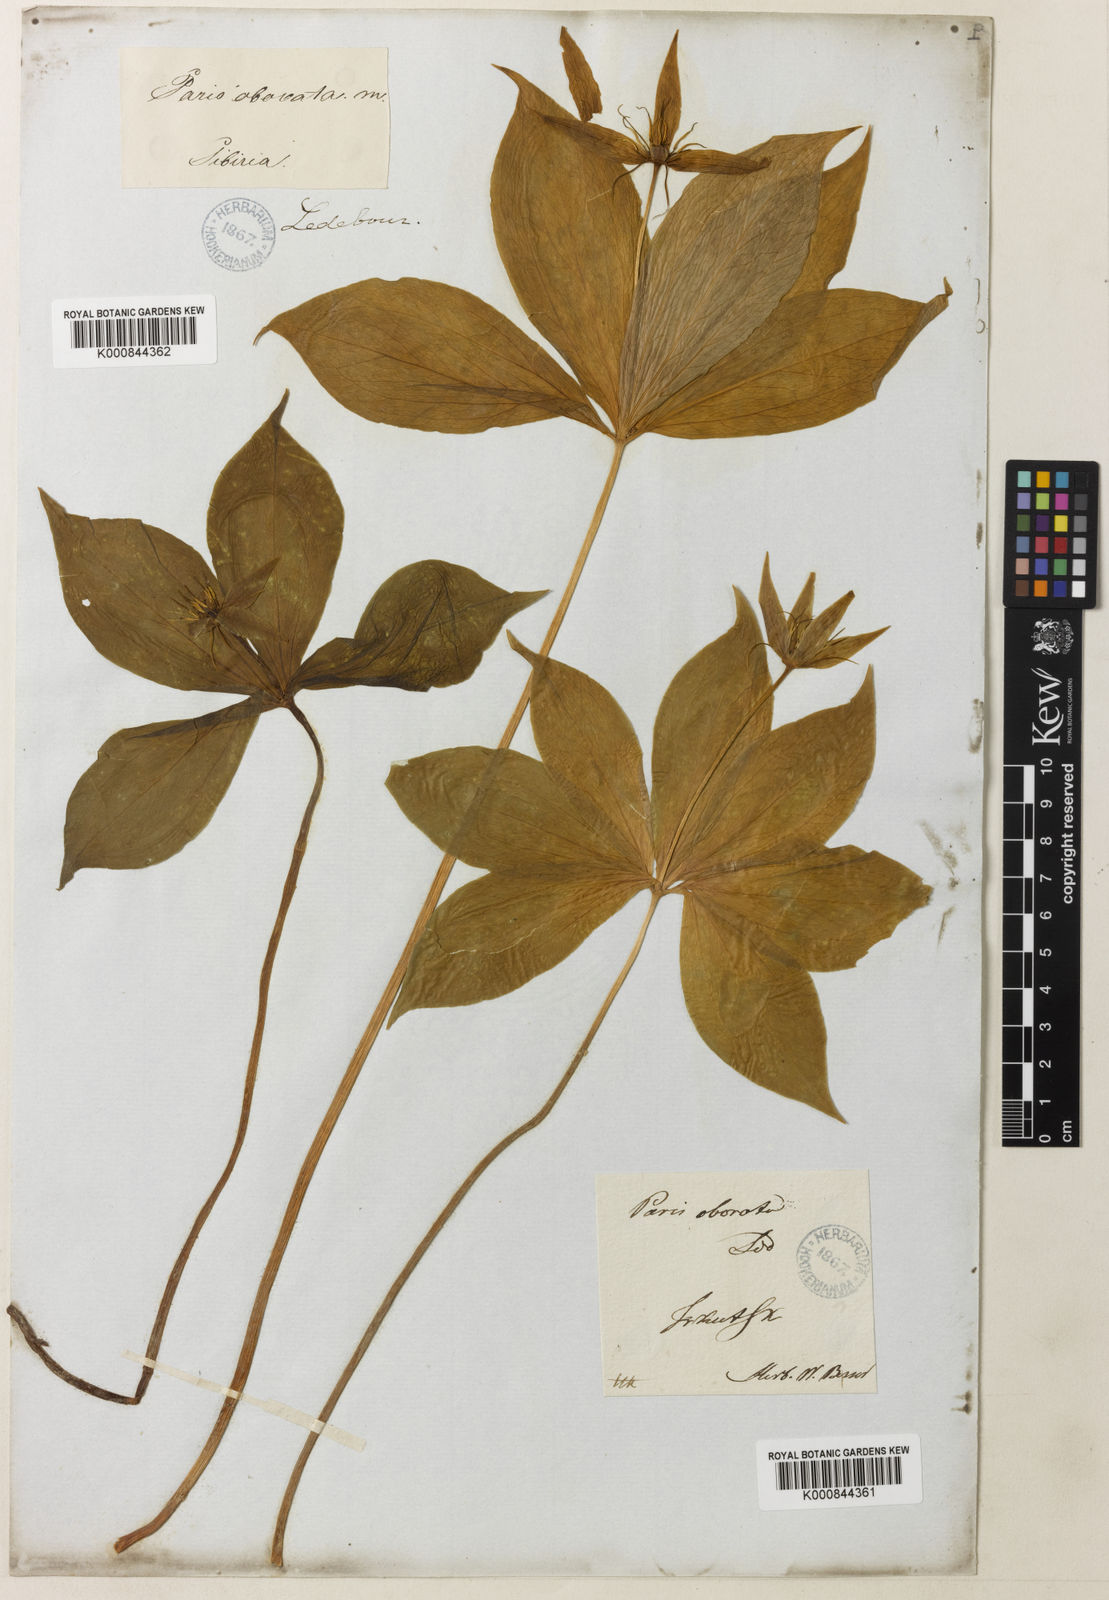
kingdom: Plantae
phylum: Tracheophyta
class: Liliopsida
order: Liliales
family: Melanthiaceae
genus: Paris
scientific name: Paris quadrifolia
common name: Herb-paris
